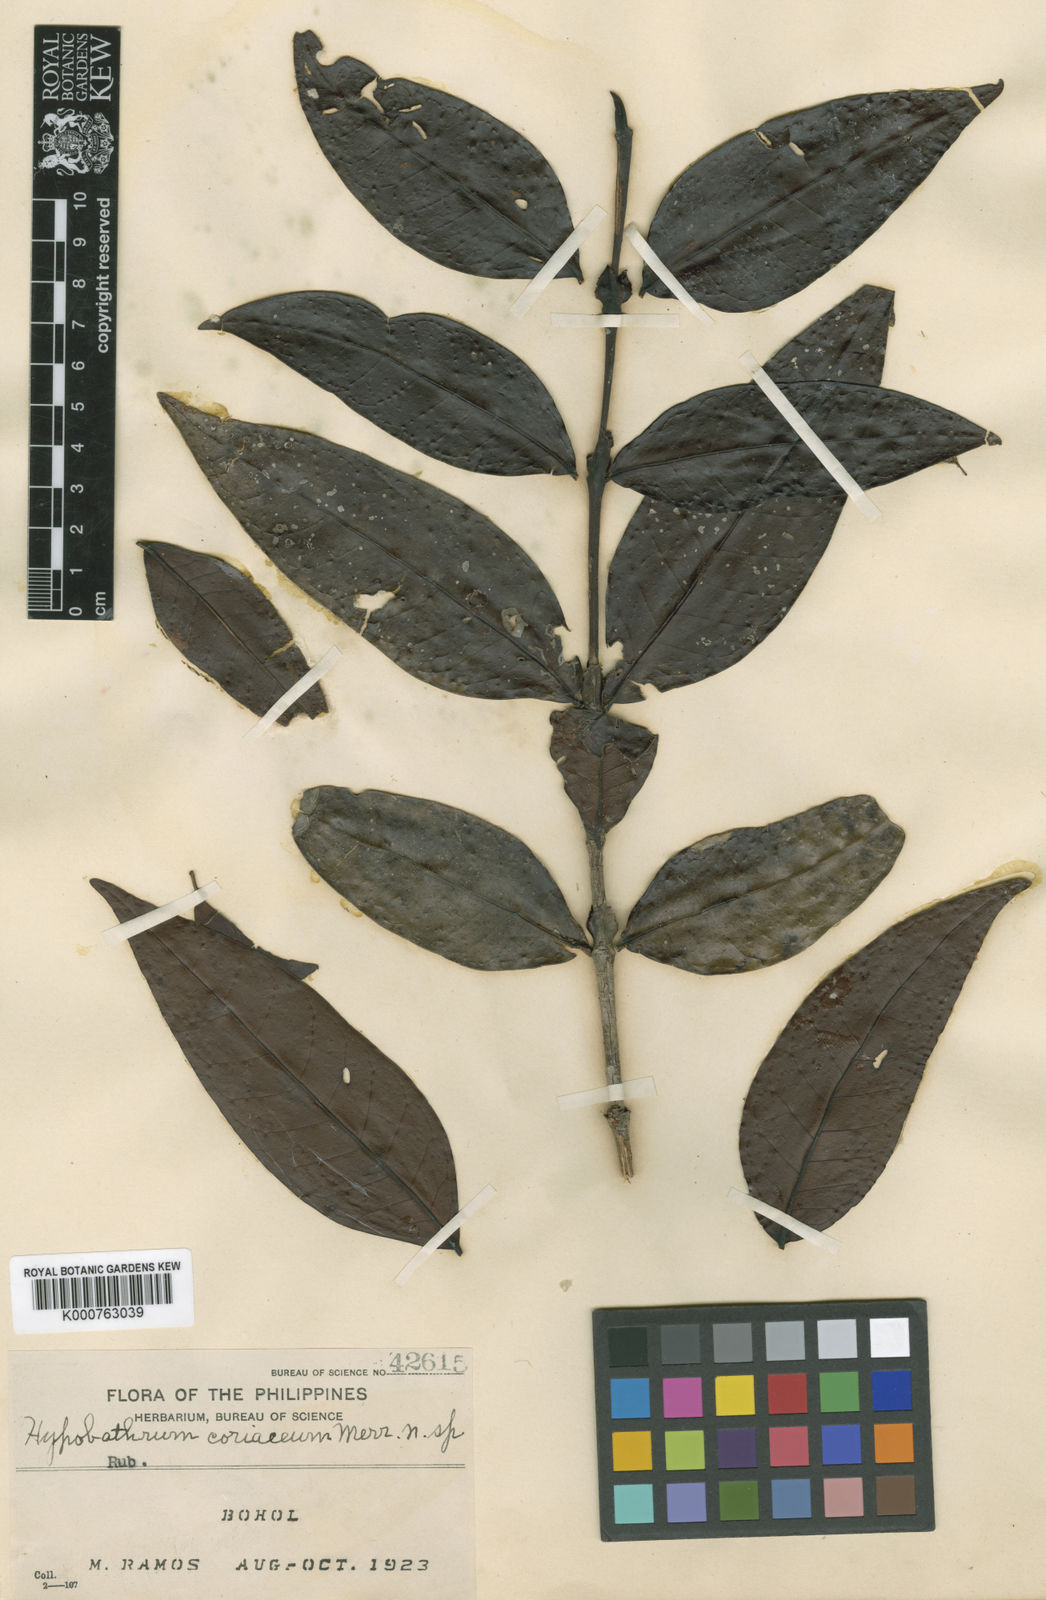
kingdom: Plantae
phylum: Tracheophyta
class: Magnoliopsida
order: Gentianales
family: Rubiaceae
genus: Villaria
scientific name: Villaria coriacea
